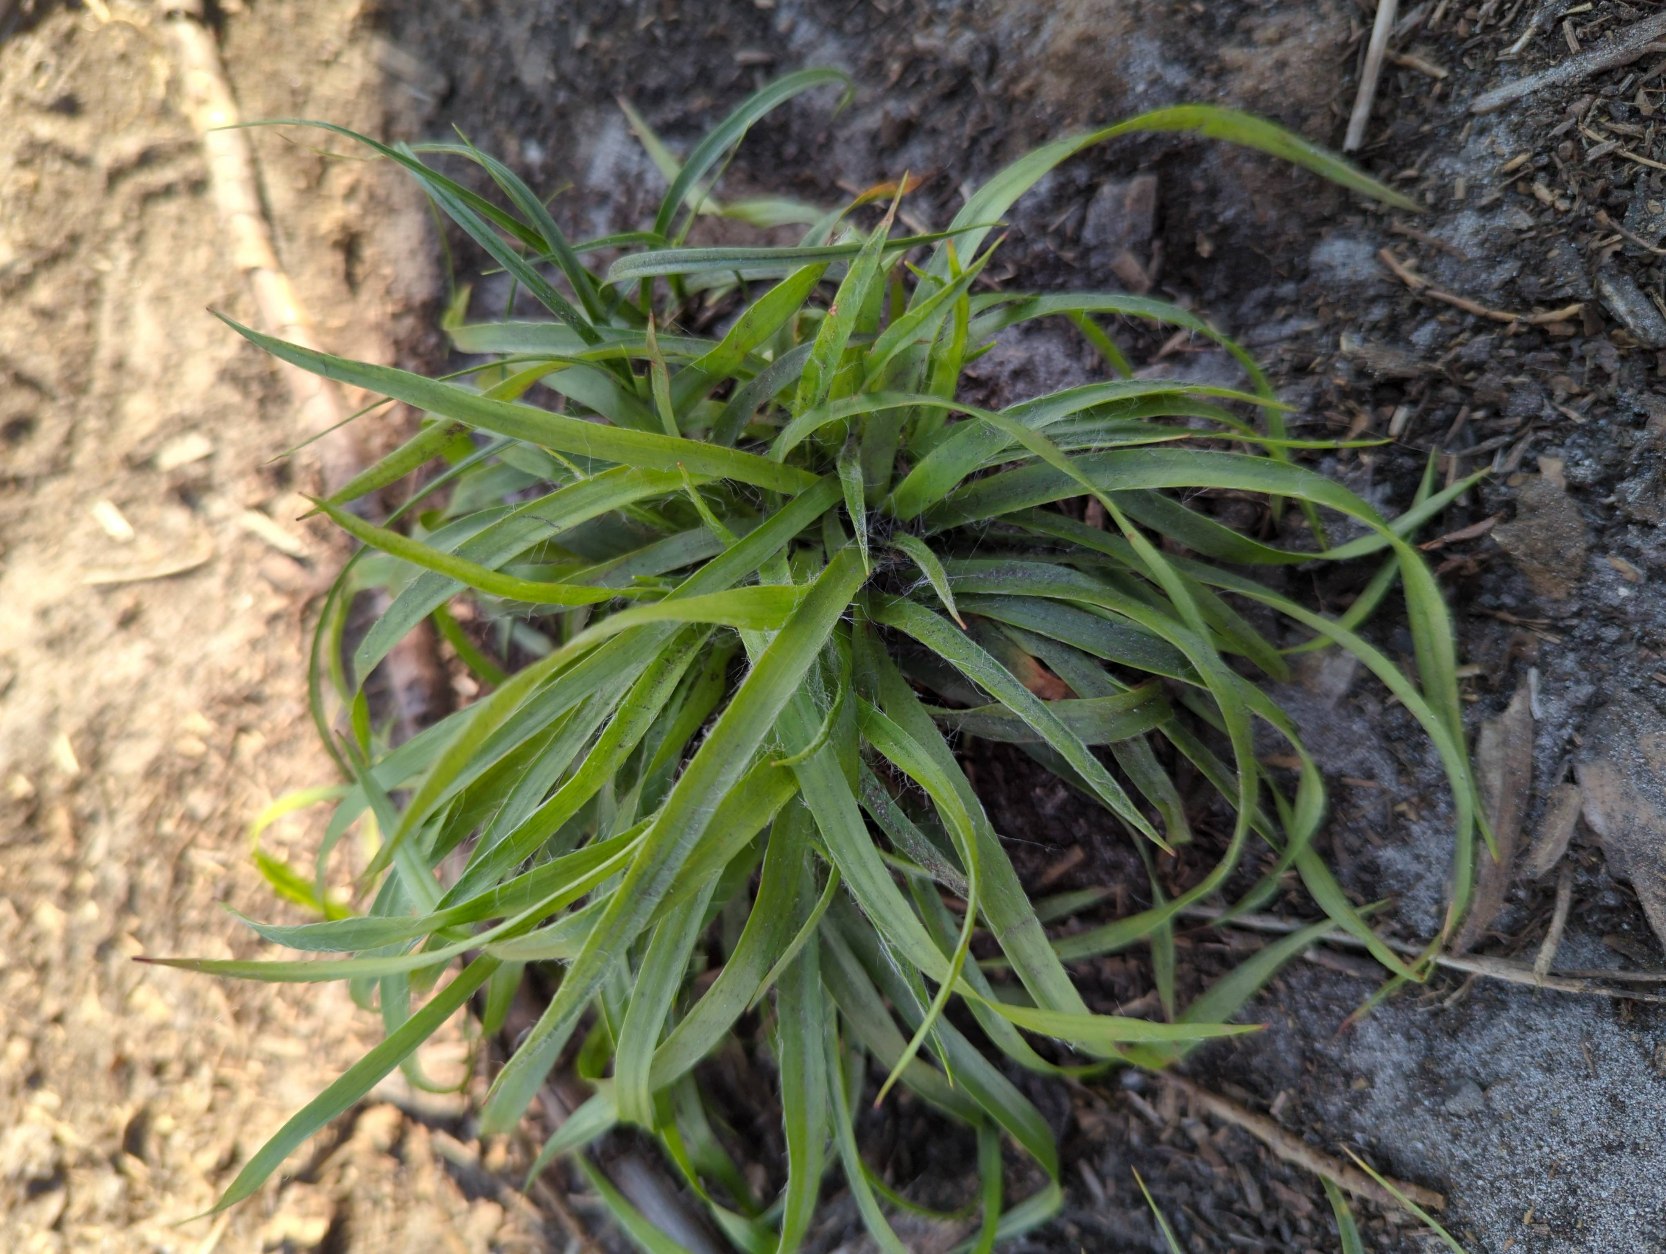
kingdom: Plantae
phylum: Tracheophyta
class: Liliopsida
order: Poales
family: Juncaceae
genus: Luzula
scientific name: Luzula pilosa
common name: Håret frytle
